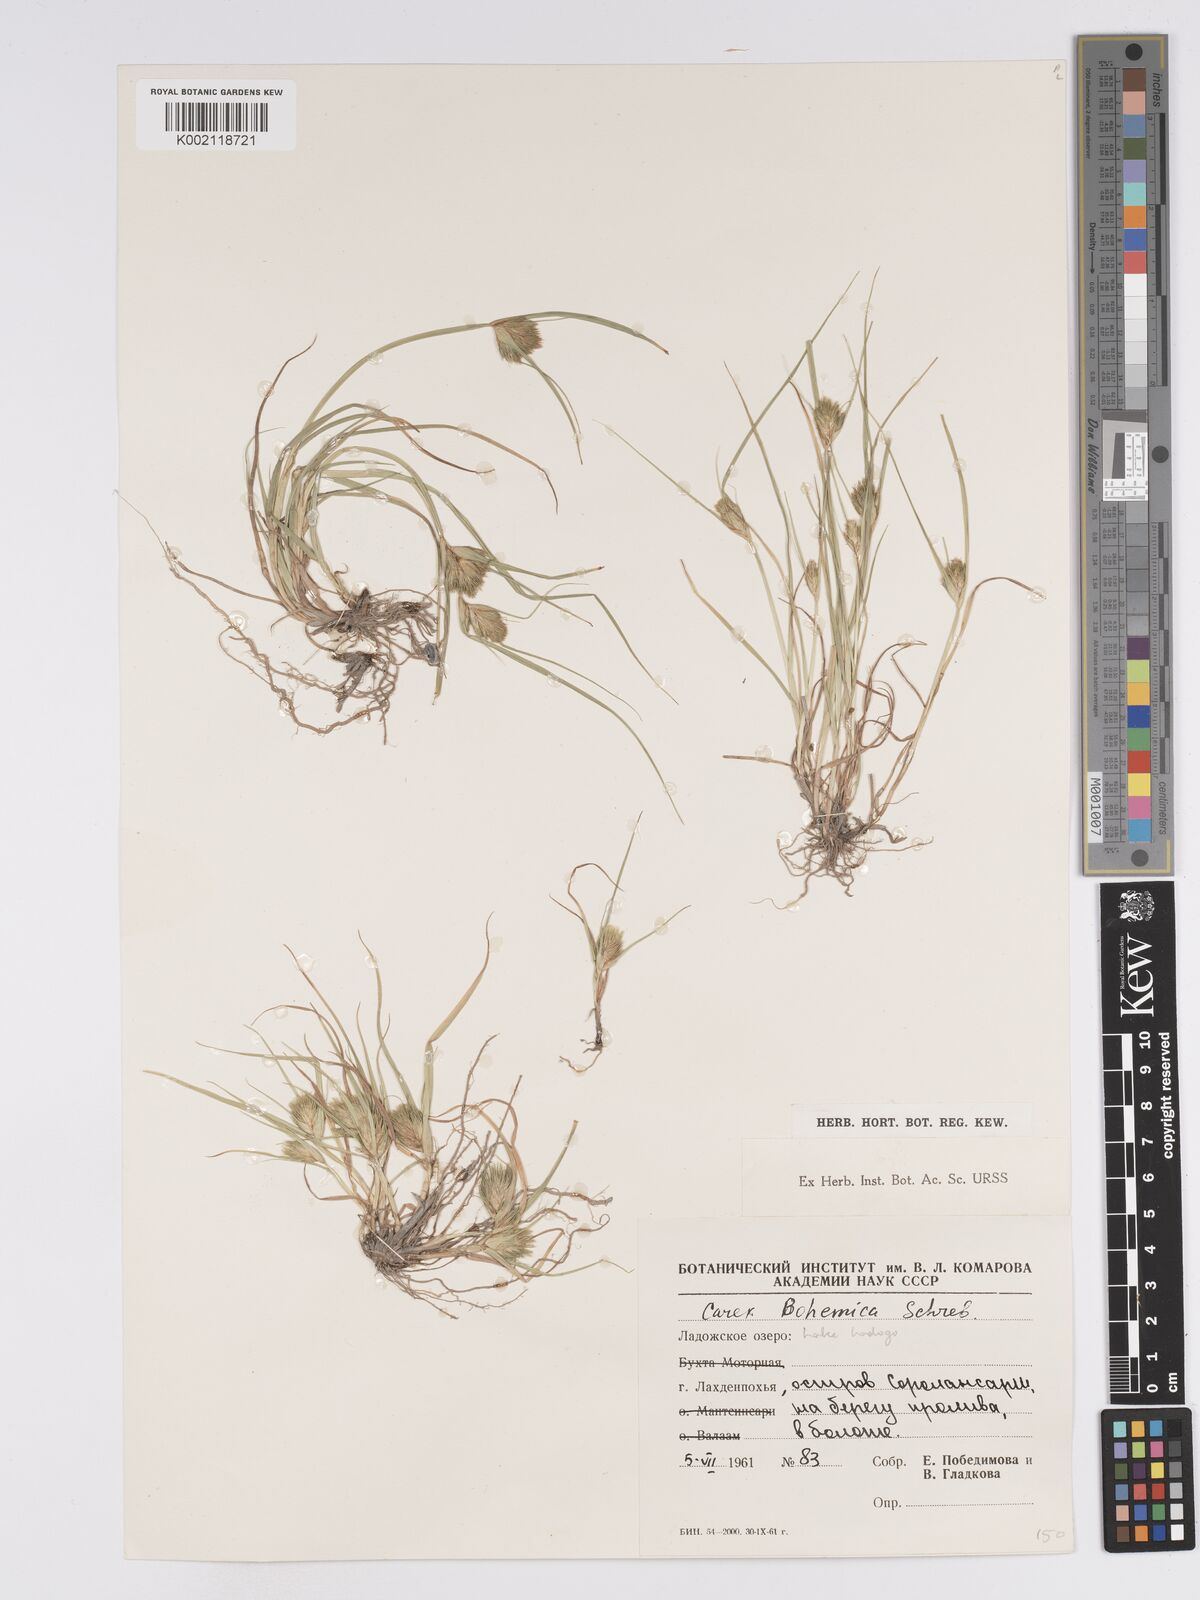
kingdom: Plantae
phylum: Tracheophyta
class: Liliopsida
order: Poales
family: Cyperaceae
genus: Carex
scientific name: Carex bohemica
